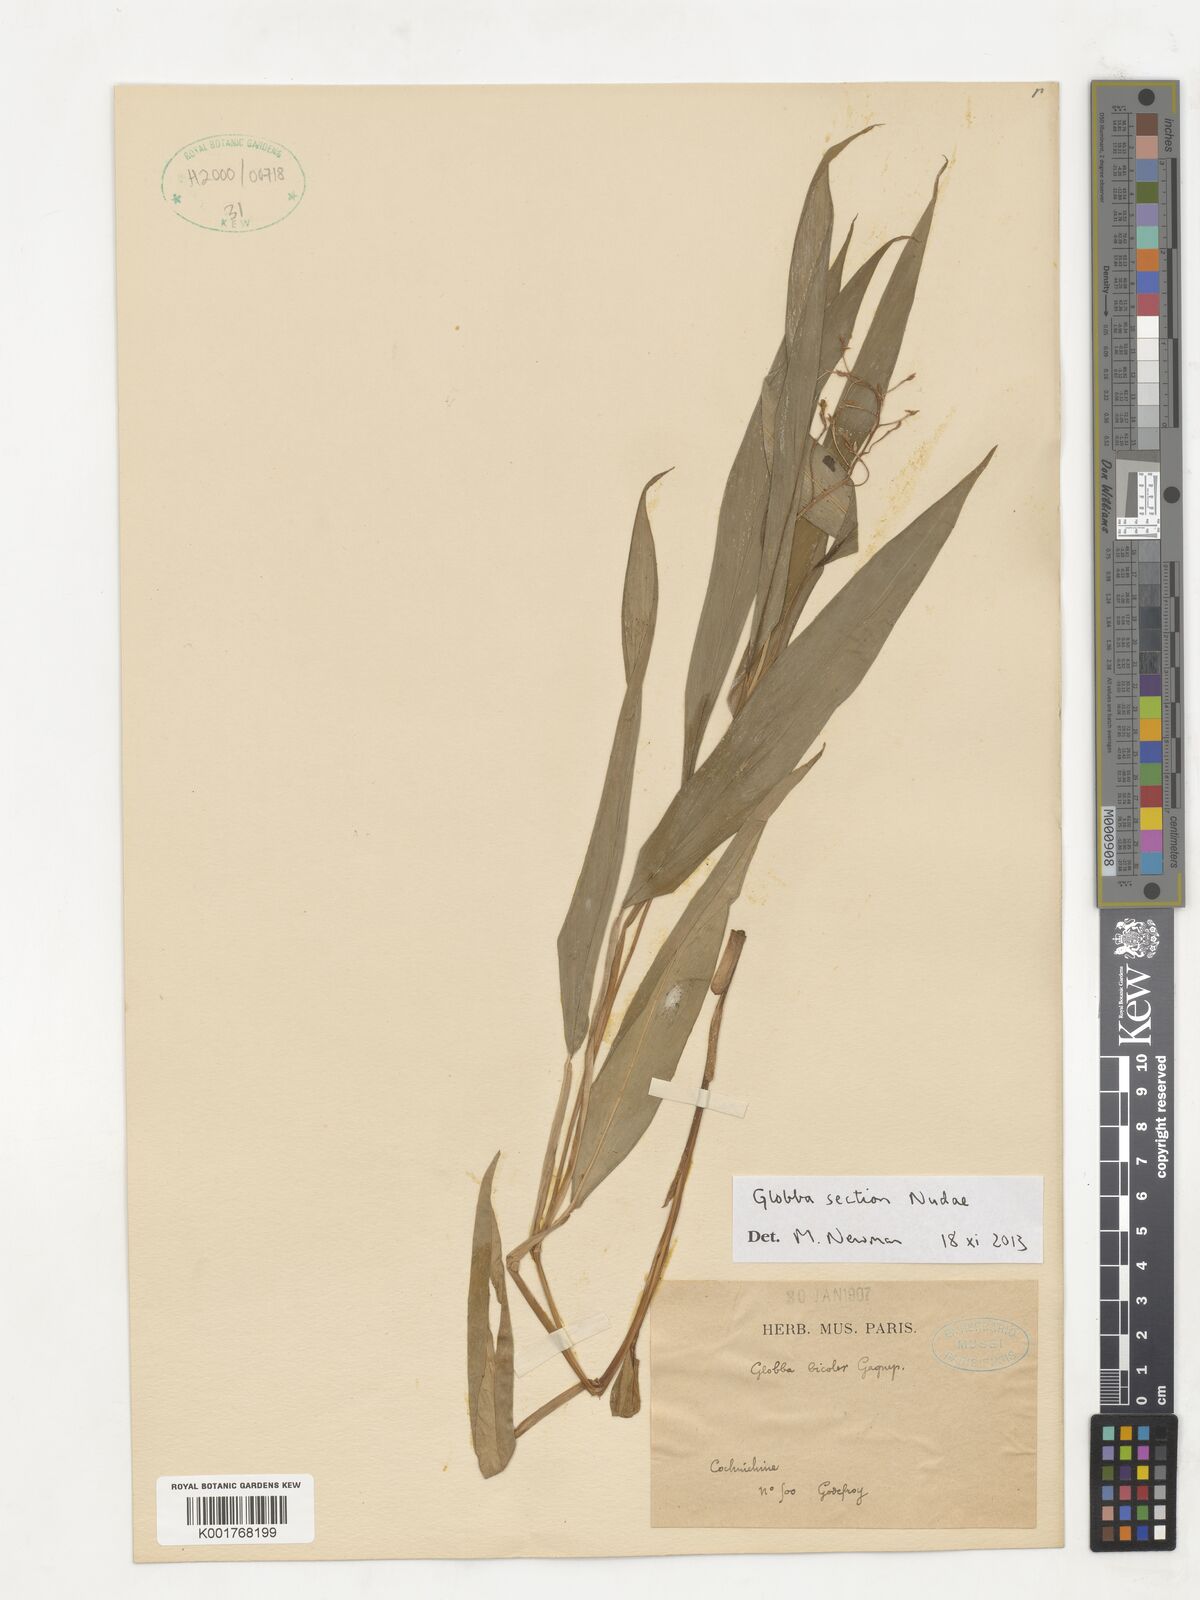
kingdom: Plantae
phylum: Tracheophyta
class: Liliopsida
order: Zingiberales
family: Zingiberaceae
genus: Globba
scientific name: Globba
